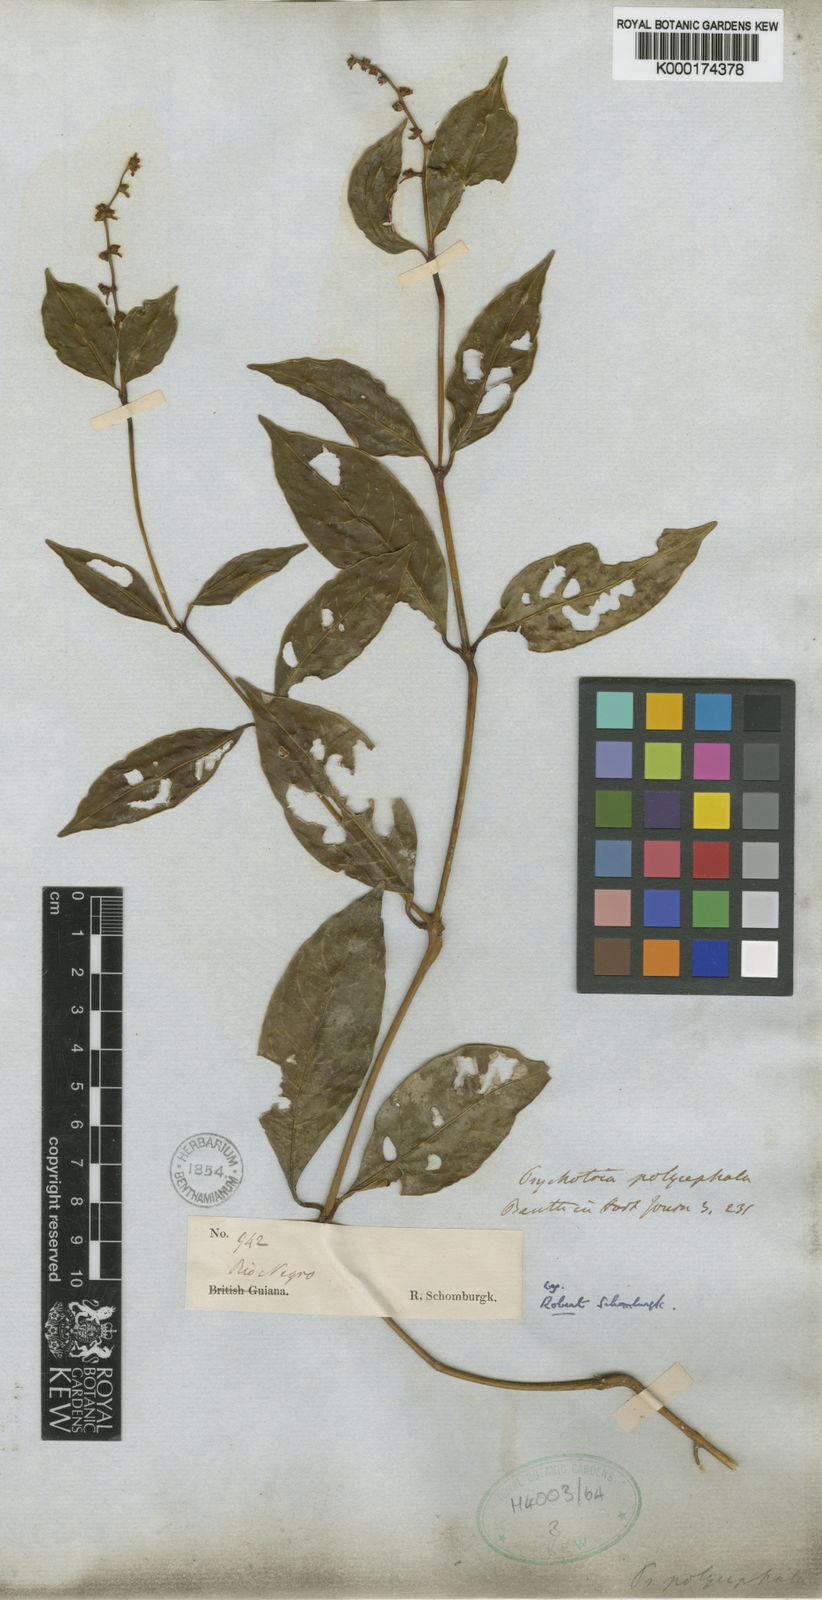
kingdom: Plantae
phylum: Tracheophyta
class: Magnoliopsida
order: Gentianales
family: Rubiaceae
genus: Palicourea
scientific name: Palicourea polycephala
